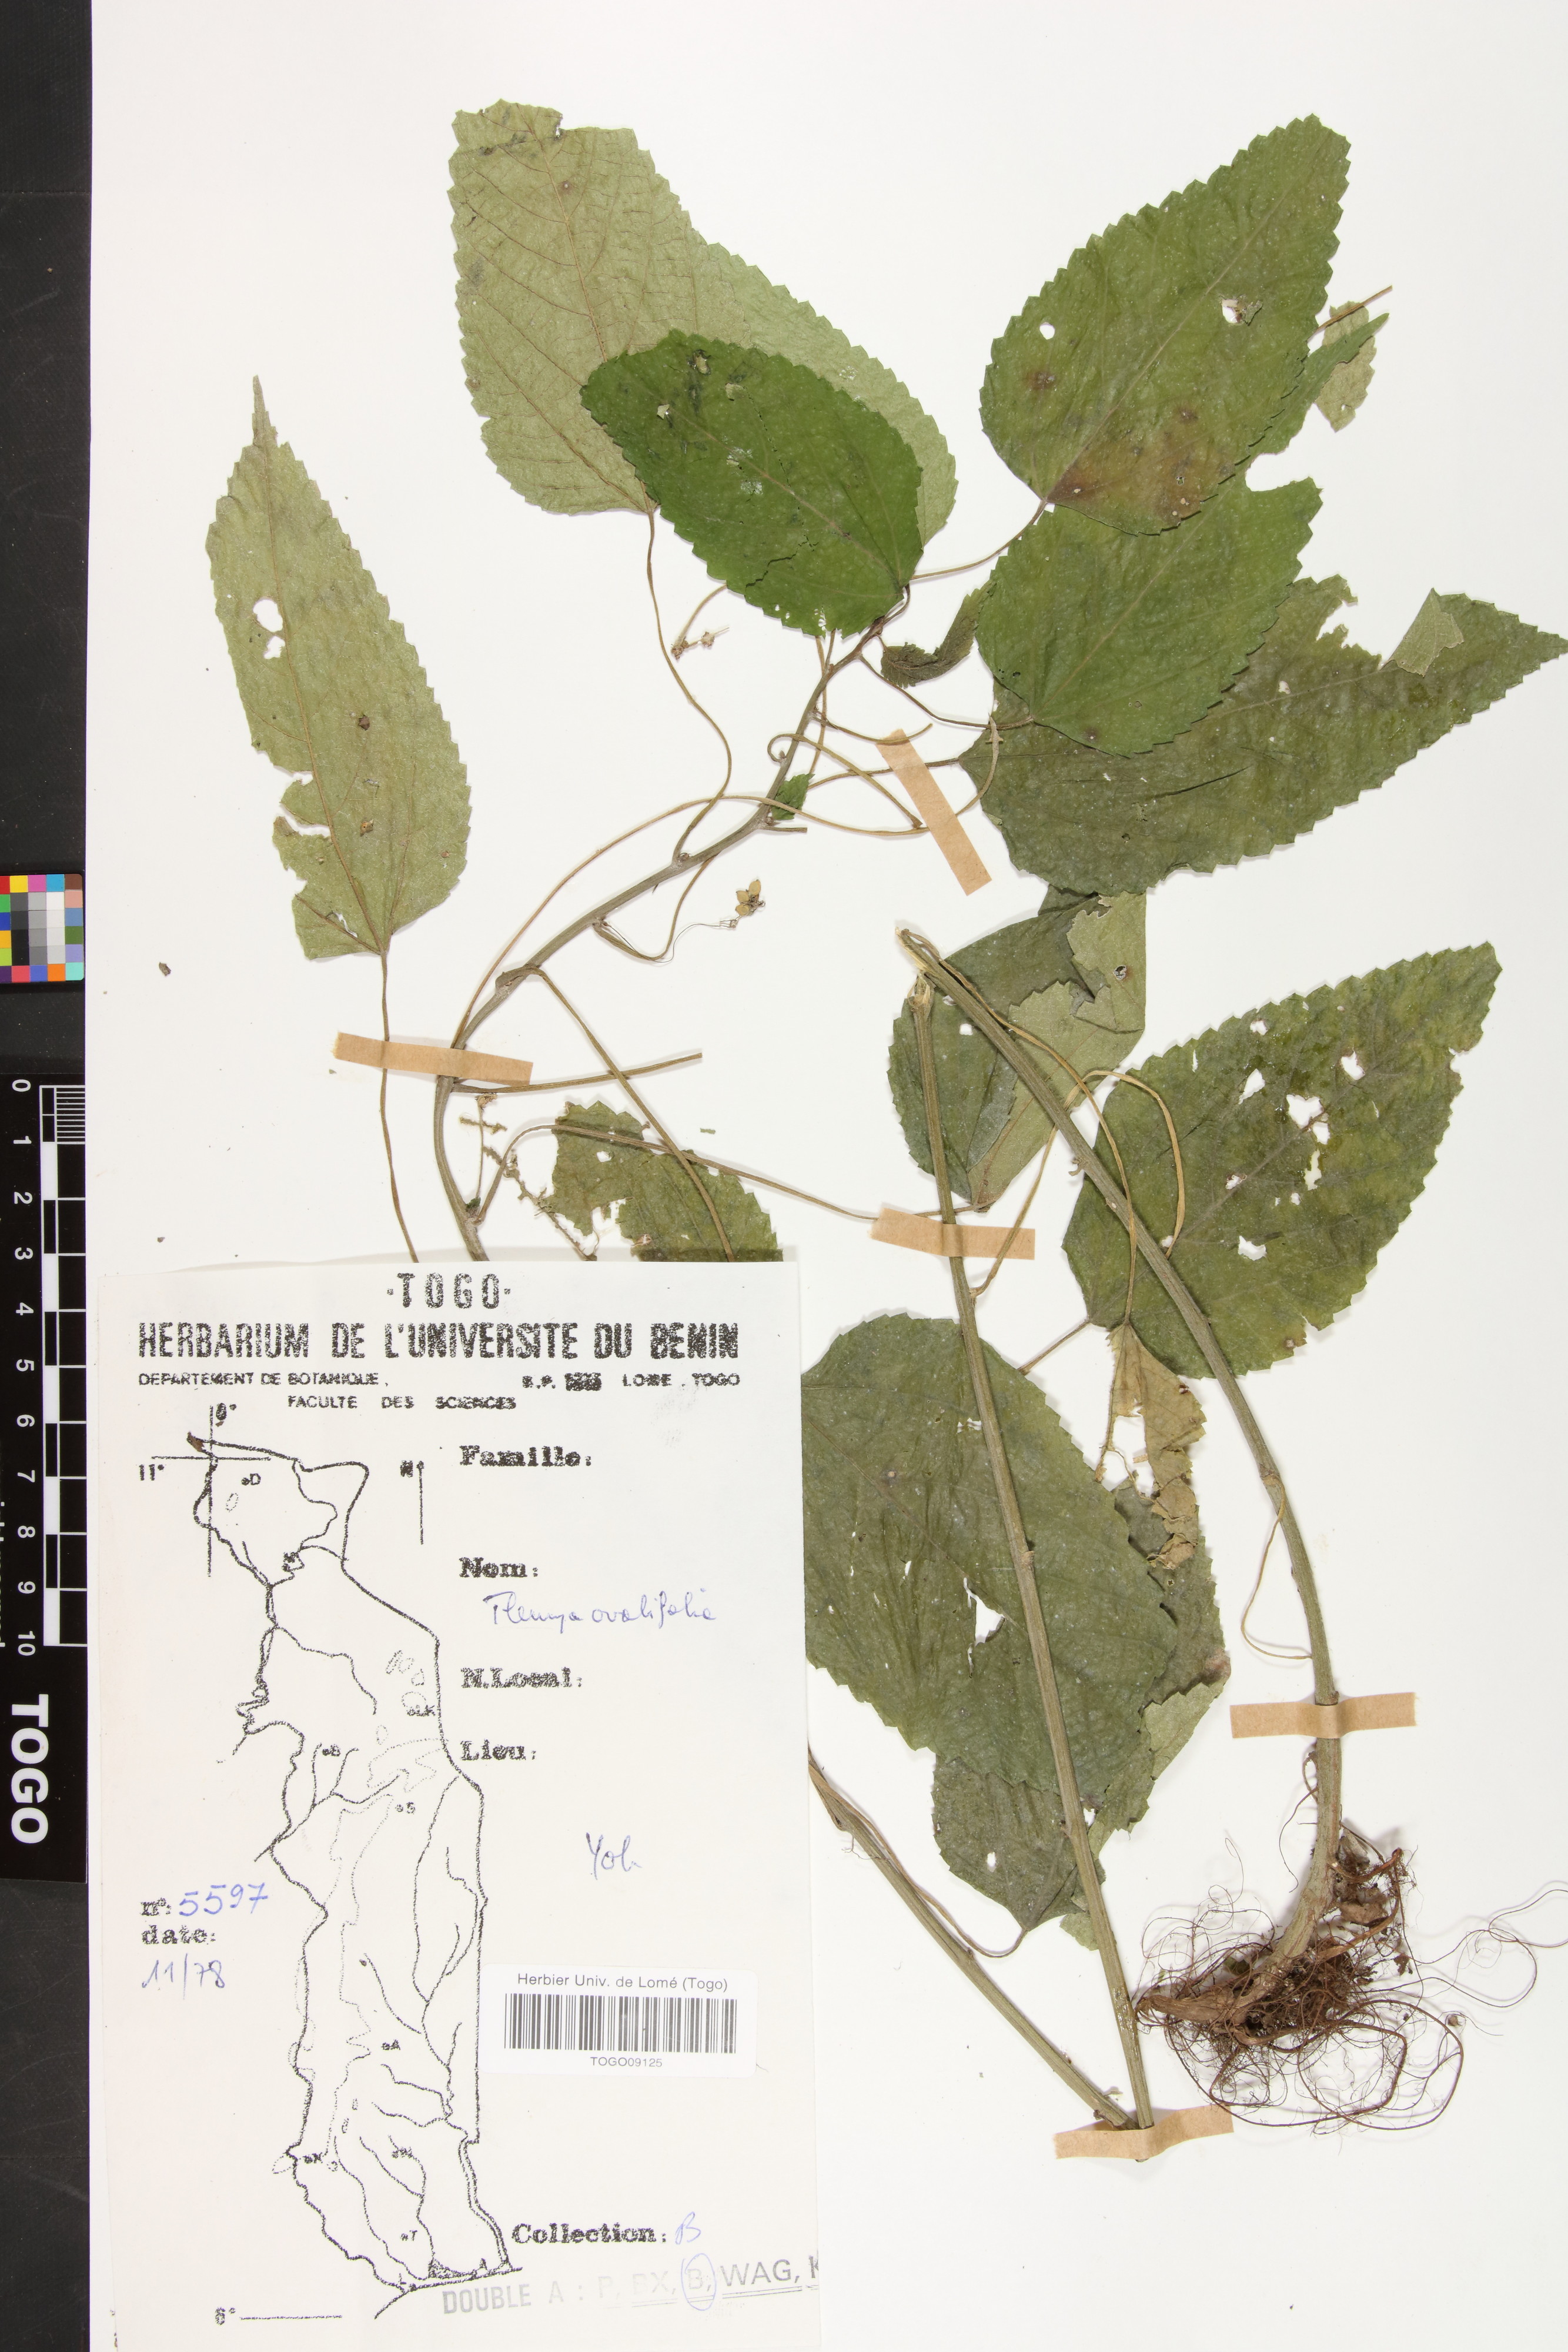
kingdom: Plantae
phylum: Tracheophyta
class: Magnoliopsida
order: Rosales
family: Urticaceae
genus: Laportea
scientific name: Laportea ovalifolia
